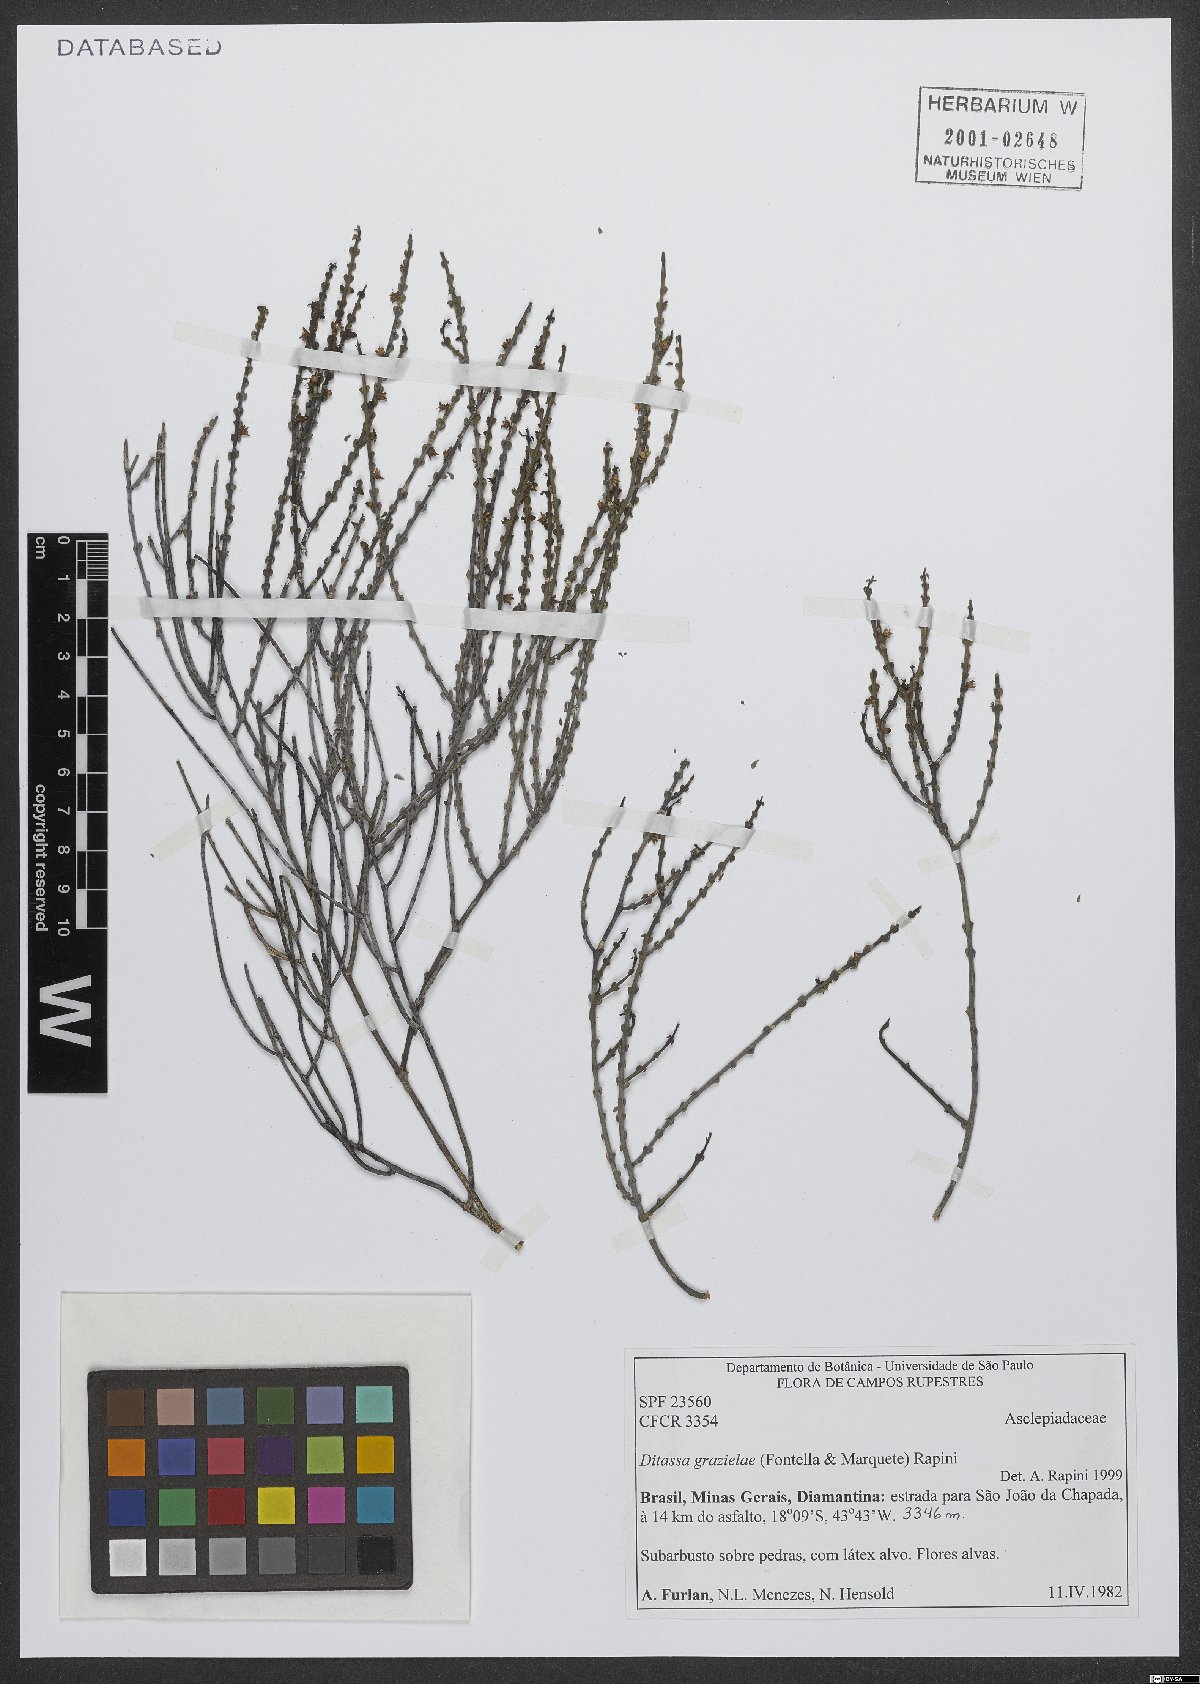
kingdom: Plantae
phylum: Tracheophyta
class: Magnoliopsida
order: Gentianales
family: Apocynaceae
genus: Minaria
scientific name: Minaria grazielae
